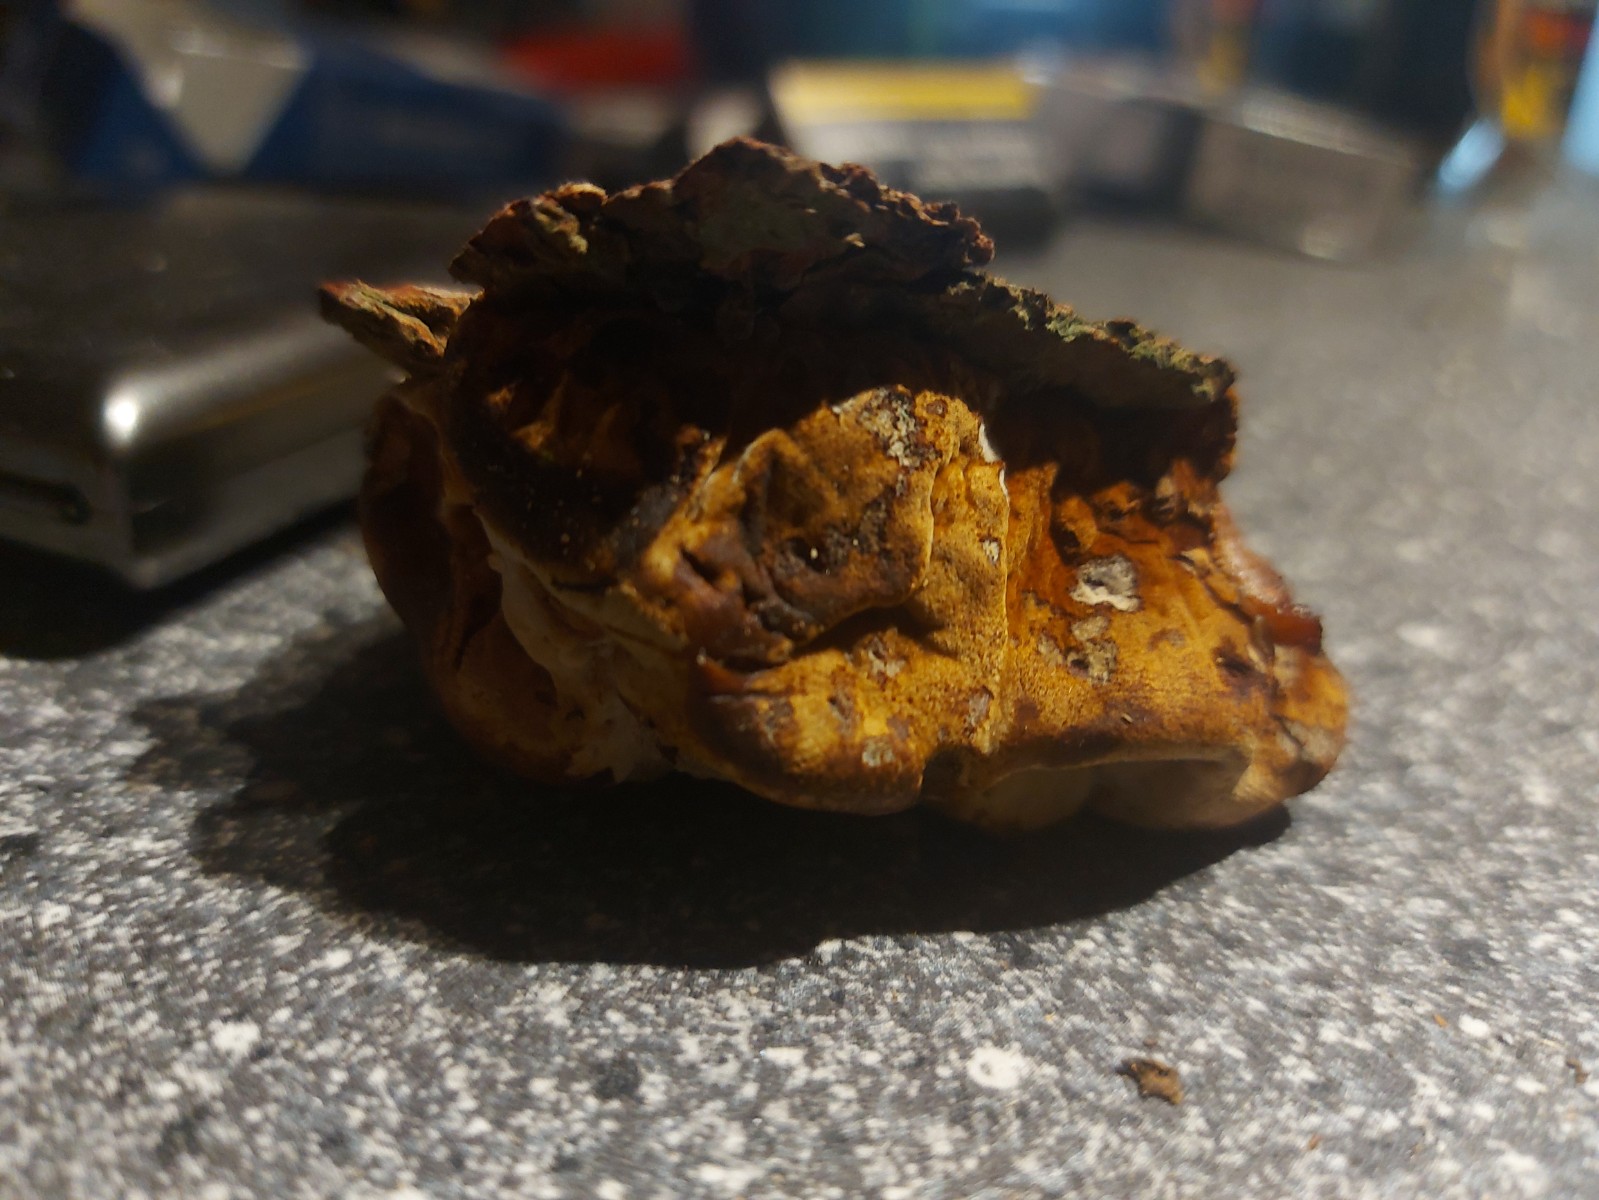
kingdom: Fungi
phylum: Basidiomycota
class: Agaricomycetes
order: Polyporales
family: Laetiporaceae
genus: Phaeolus
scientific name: Phaeolus schweinitzii
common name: brunporesvamp
